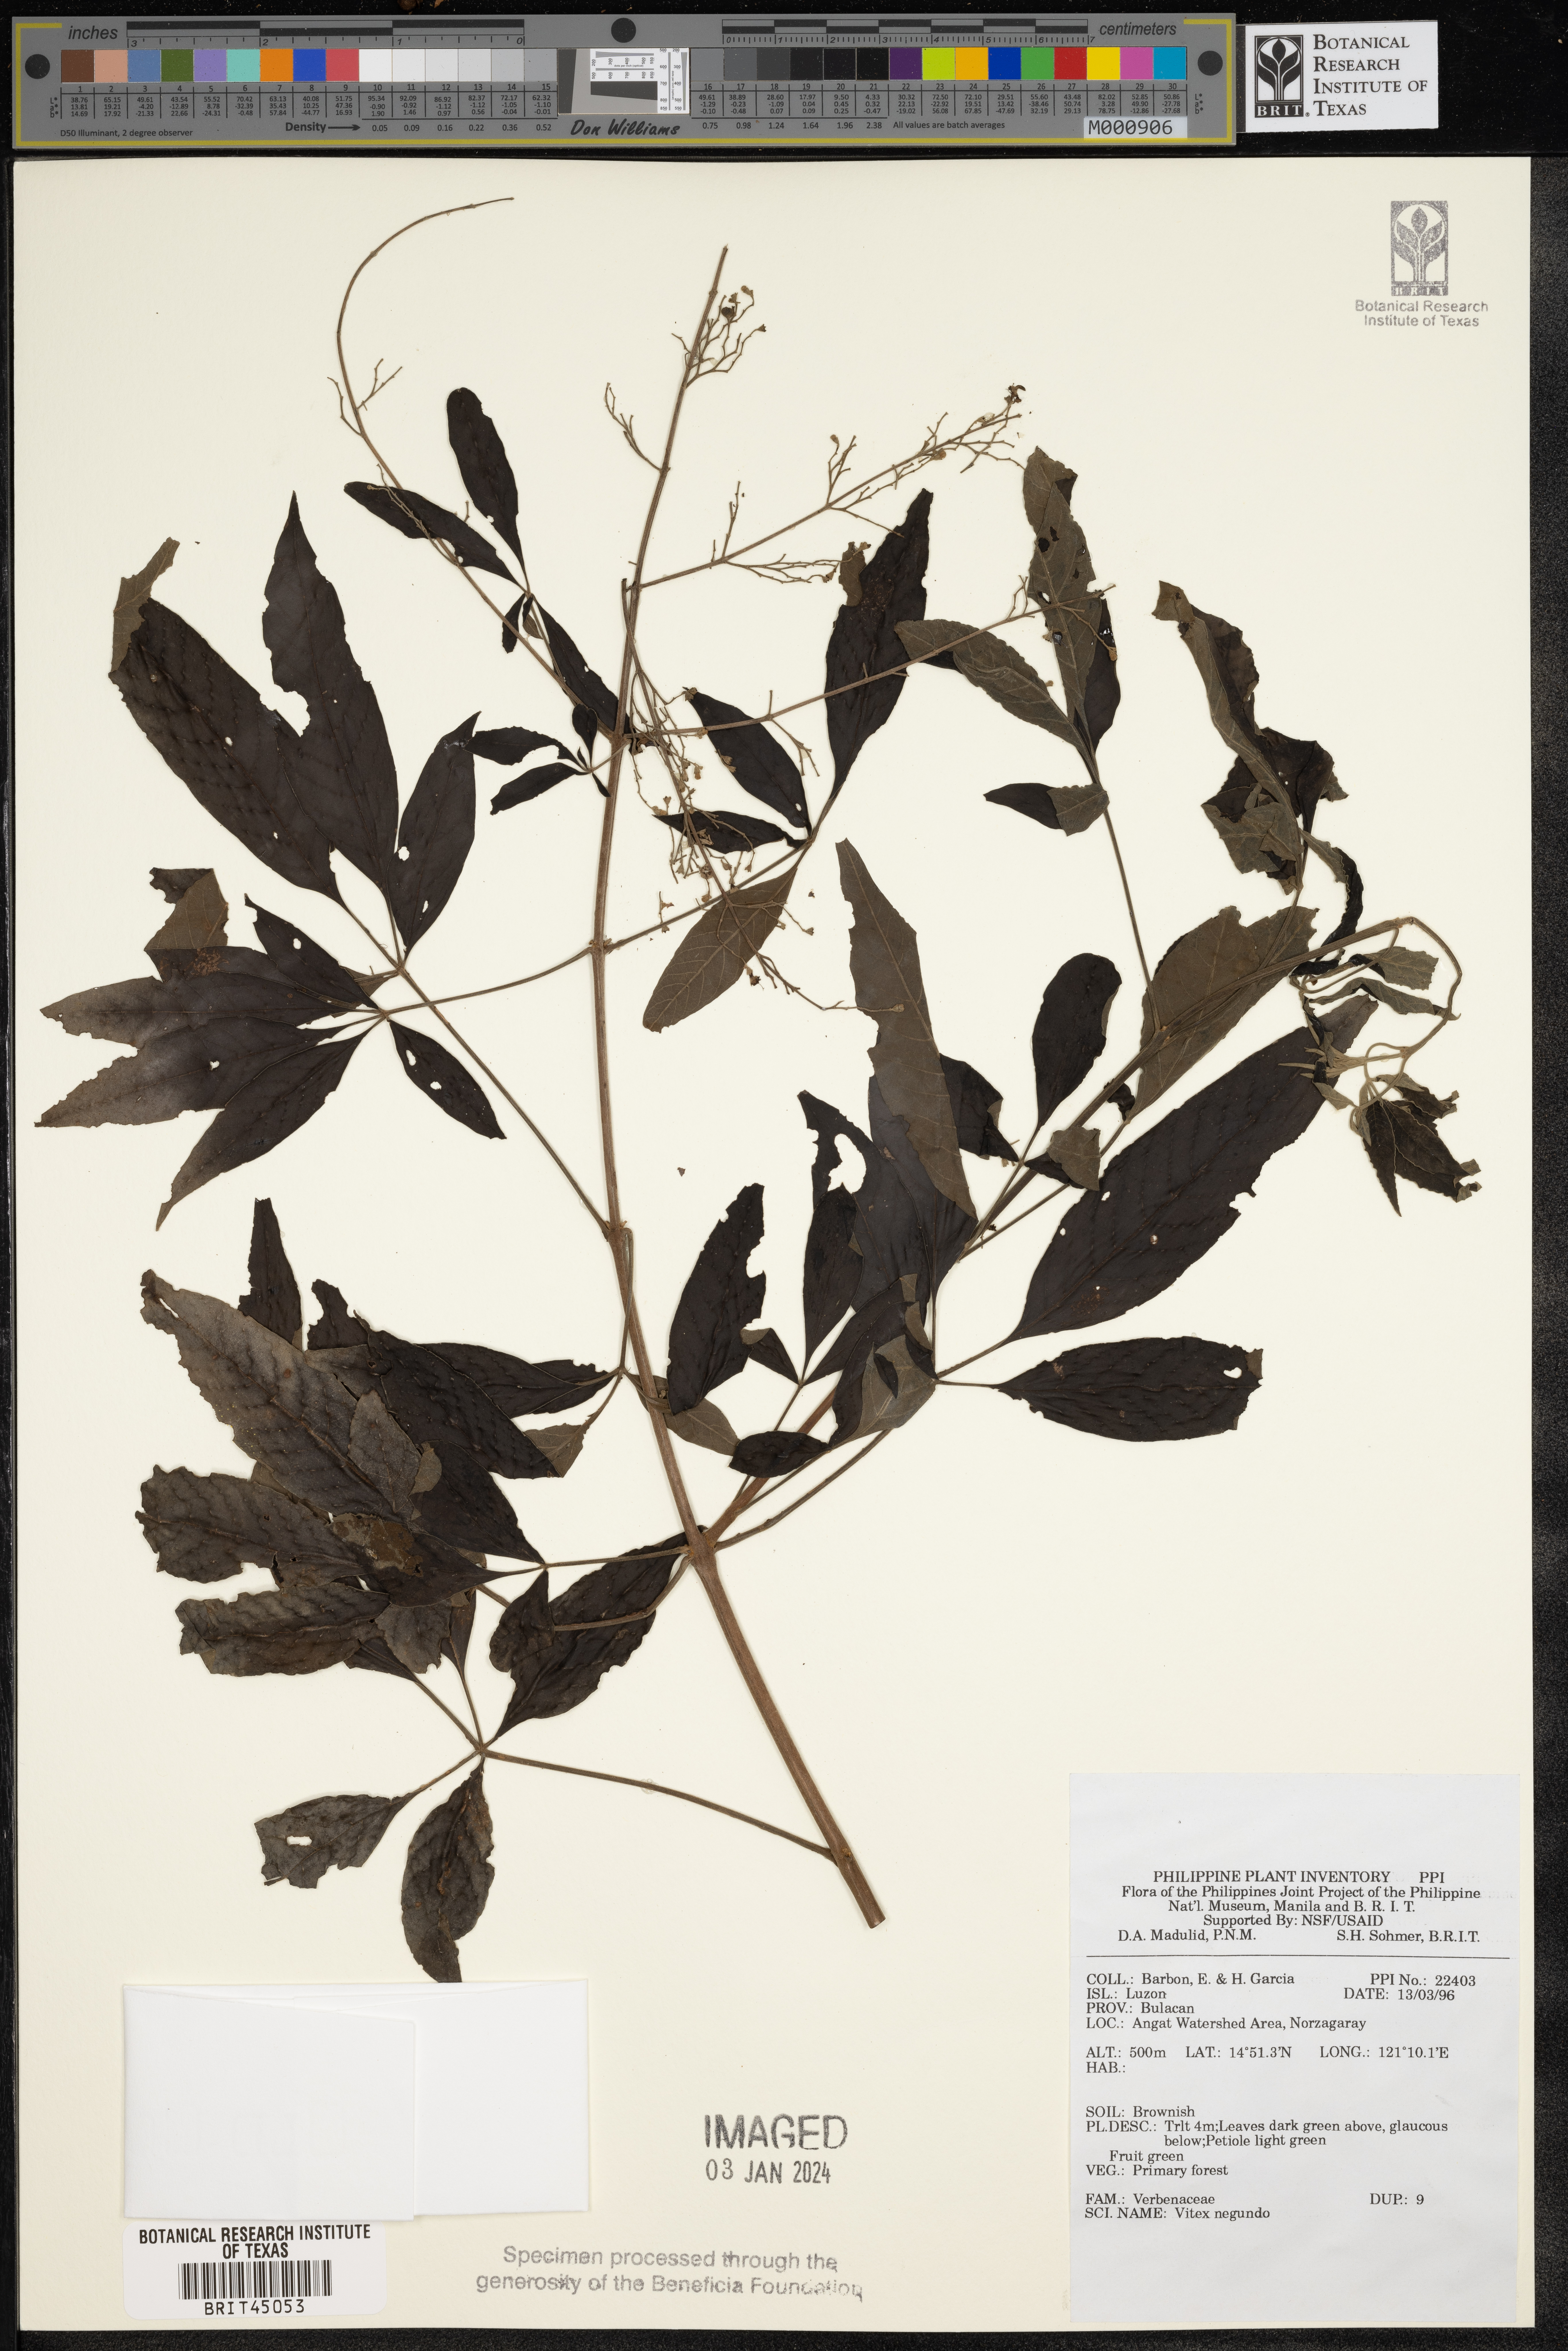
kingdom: Plantae
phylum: Tracheophyta
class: Magnoliopsida
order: Lamiales
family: Lamiaceae
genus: Vitex
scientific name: Vitex negundo
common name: Chinese chastetree
